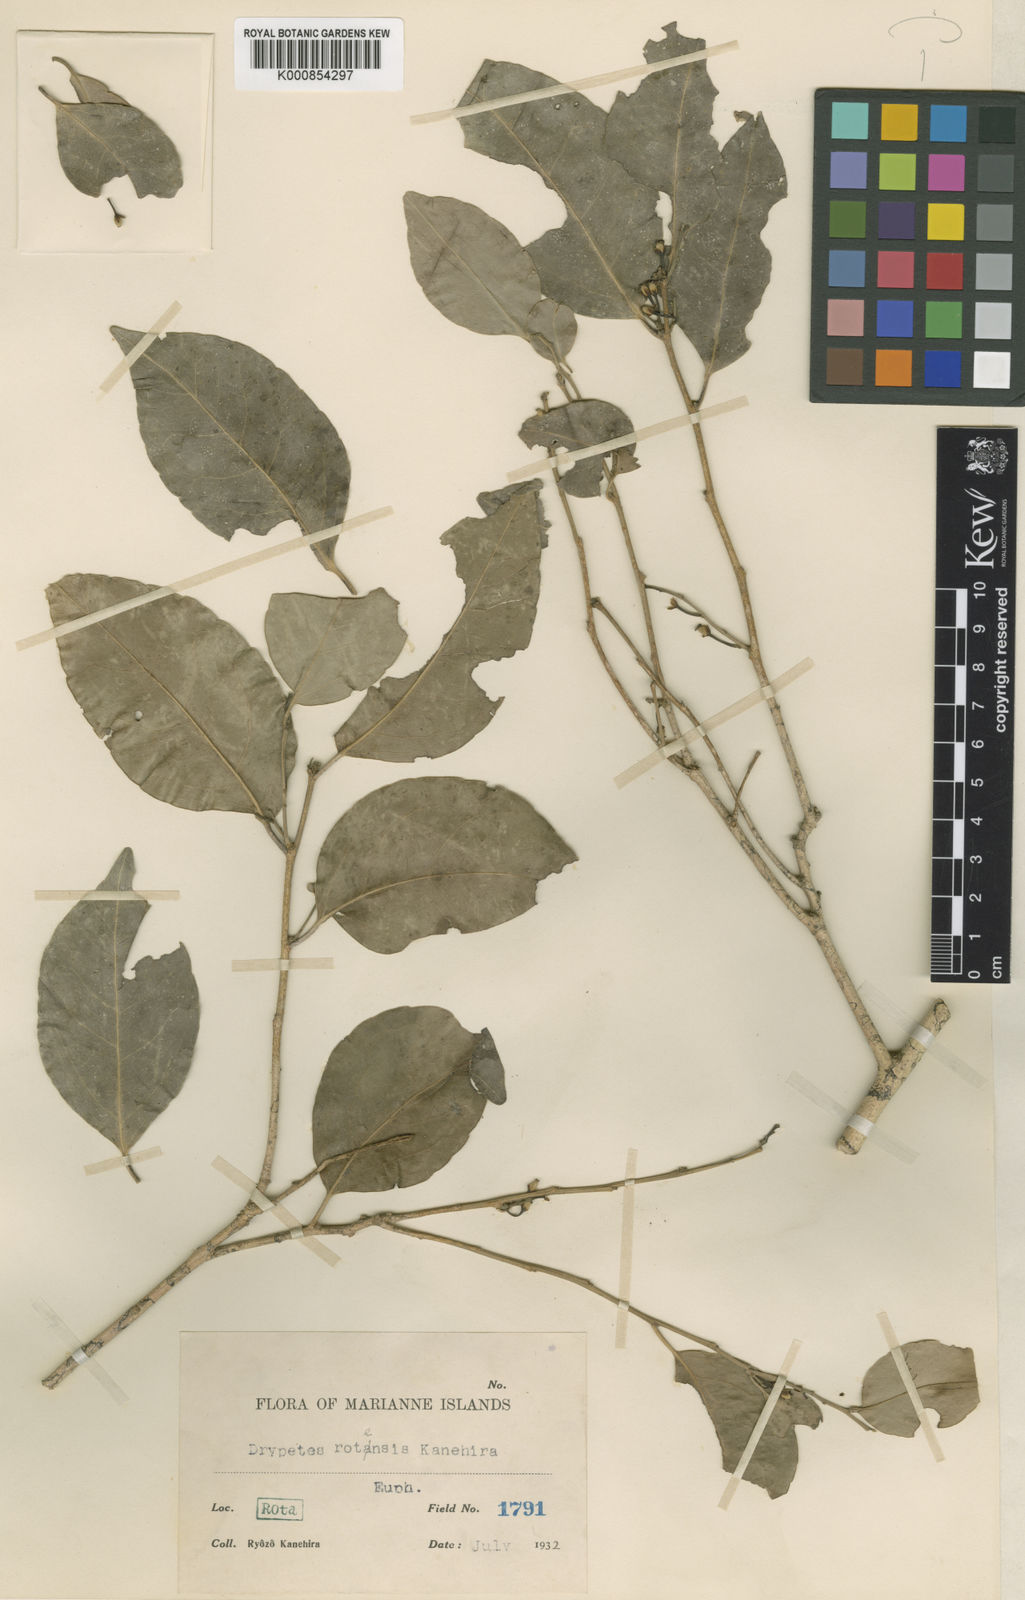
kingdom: Plantae
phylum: Tracheophyta
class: Magnoliopsida
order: Malpighiales
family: Putranjivaceae
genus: Drypetes
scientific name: Drypetes dolichocarpa
